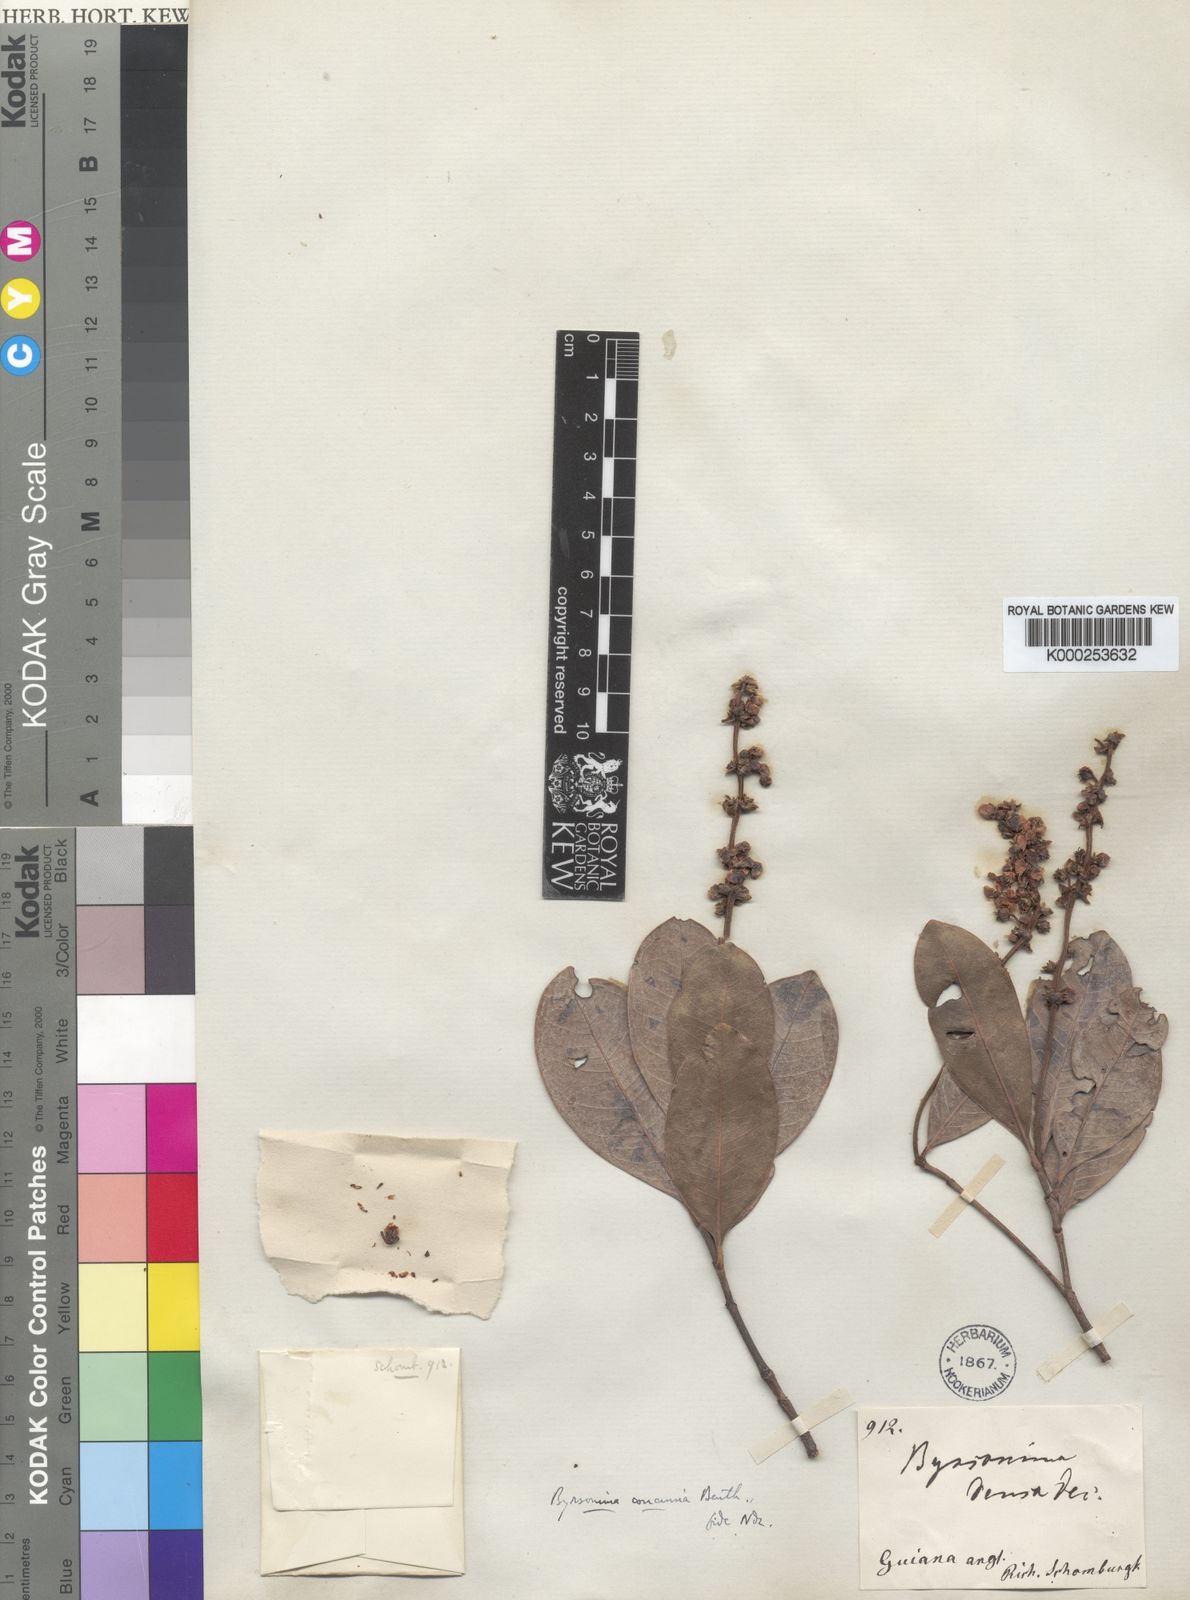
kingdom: Plantae
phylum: Tracheophyta
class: Magnoliopsida
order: Malpighiales
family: Malpighiaceae
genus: Byrsonima
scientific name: Byrsonima concinna
